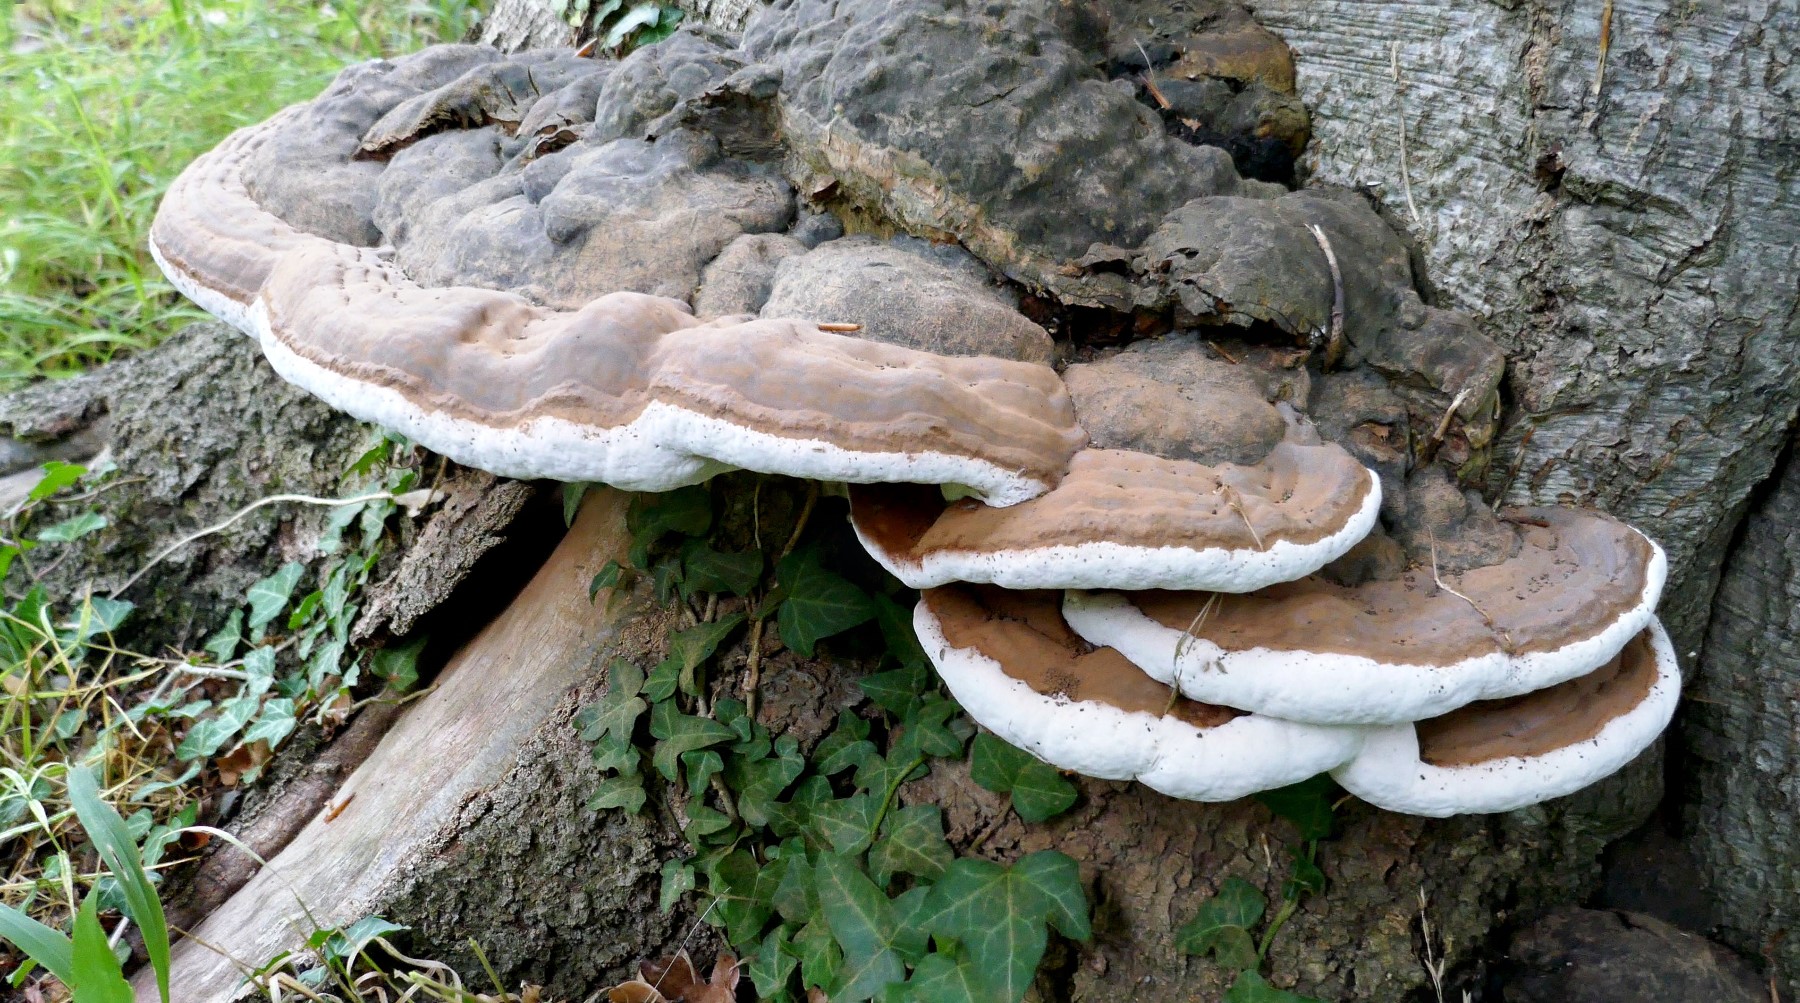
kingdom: Fungi
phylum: Basidiomycota
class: Agaricomycetes
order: Polyporales
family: Polyporaceae
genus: Ganoderma
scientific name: Ganoderma pfeifferi
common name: kobberrød lakporesvamp
